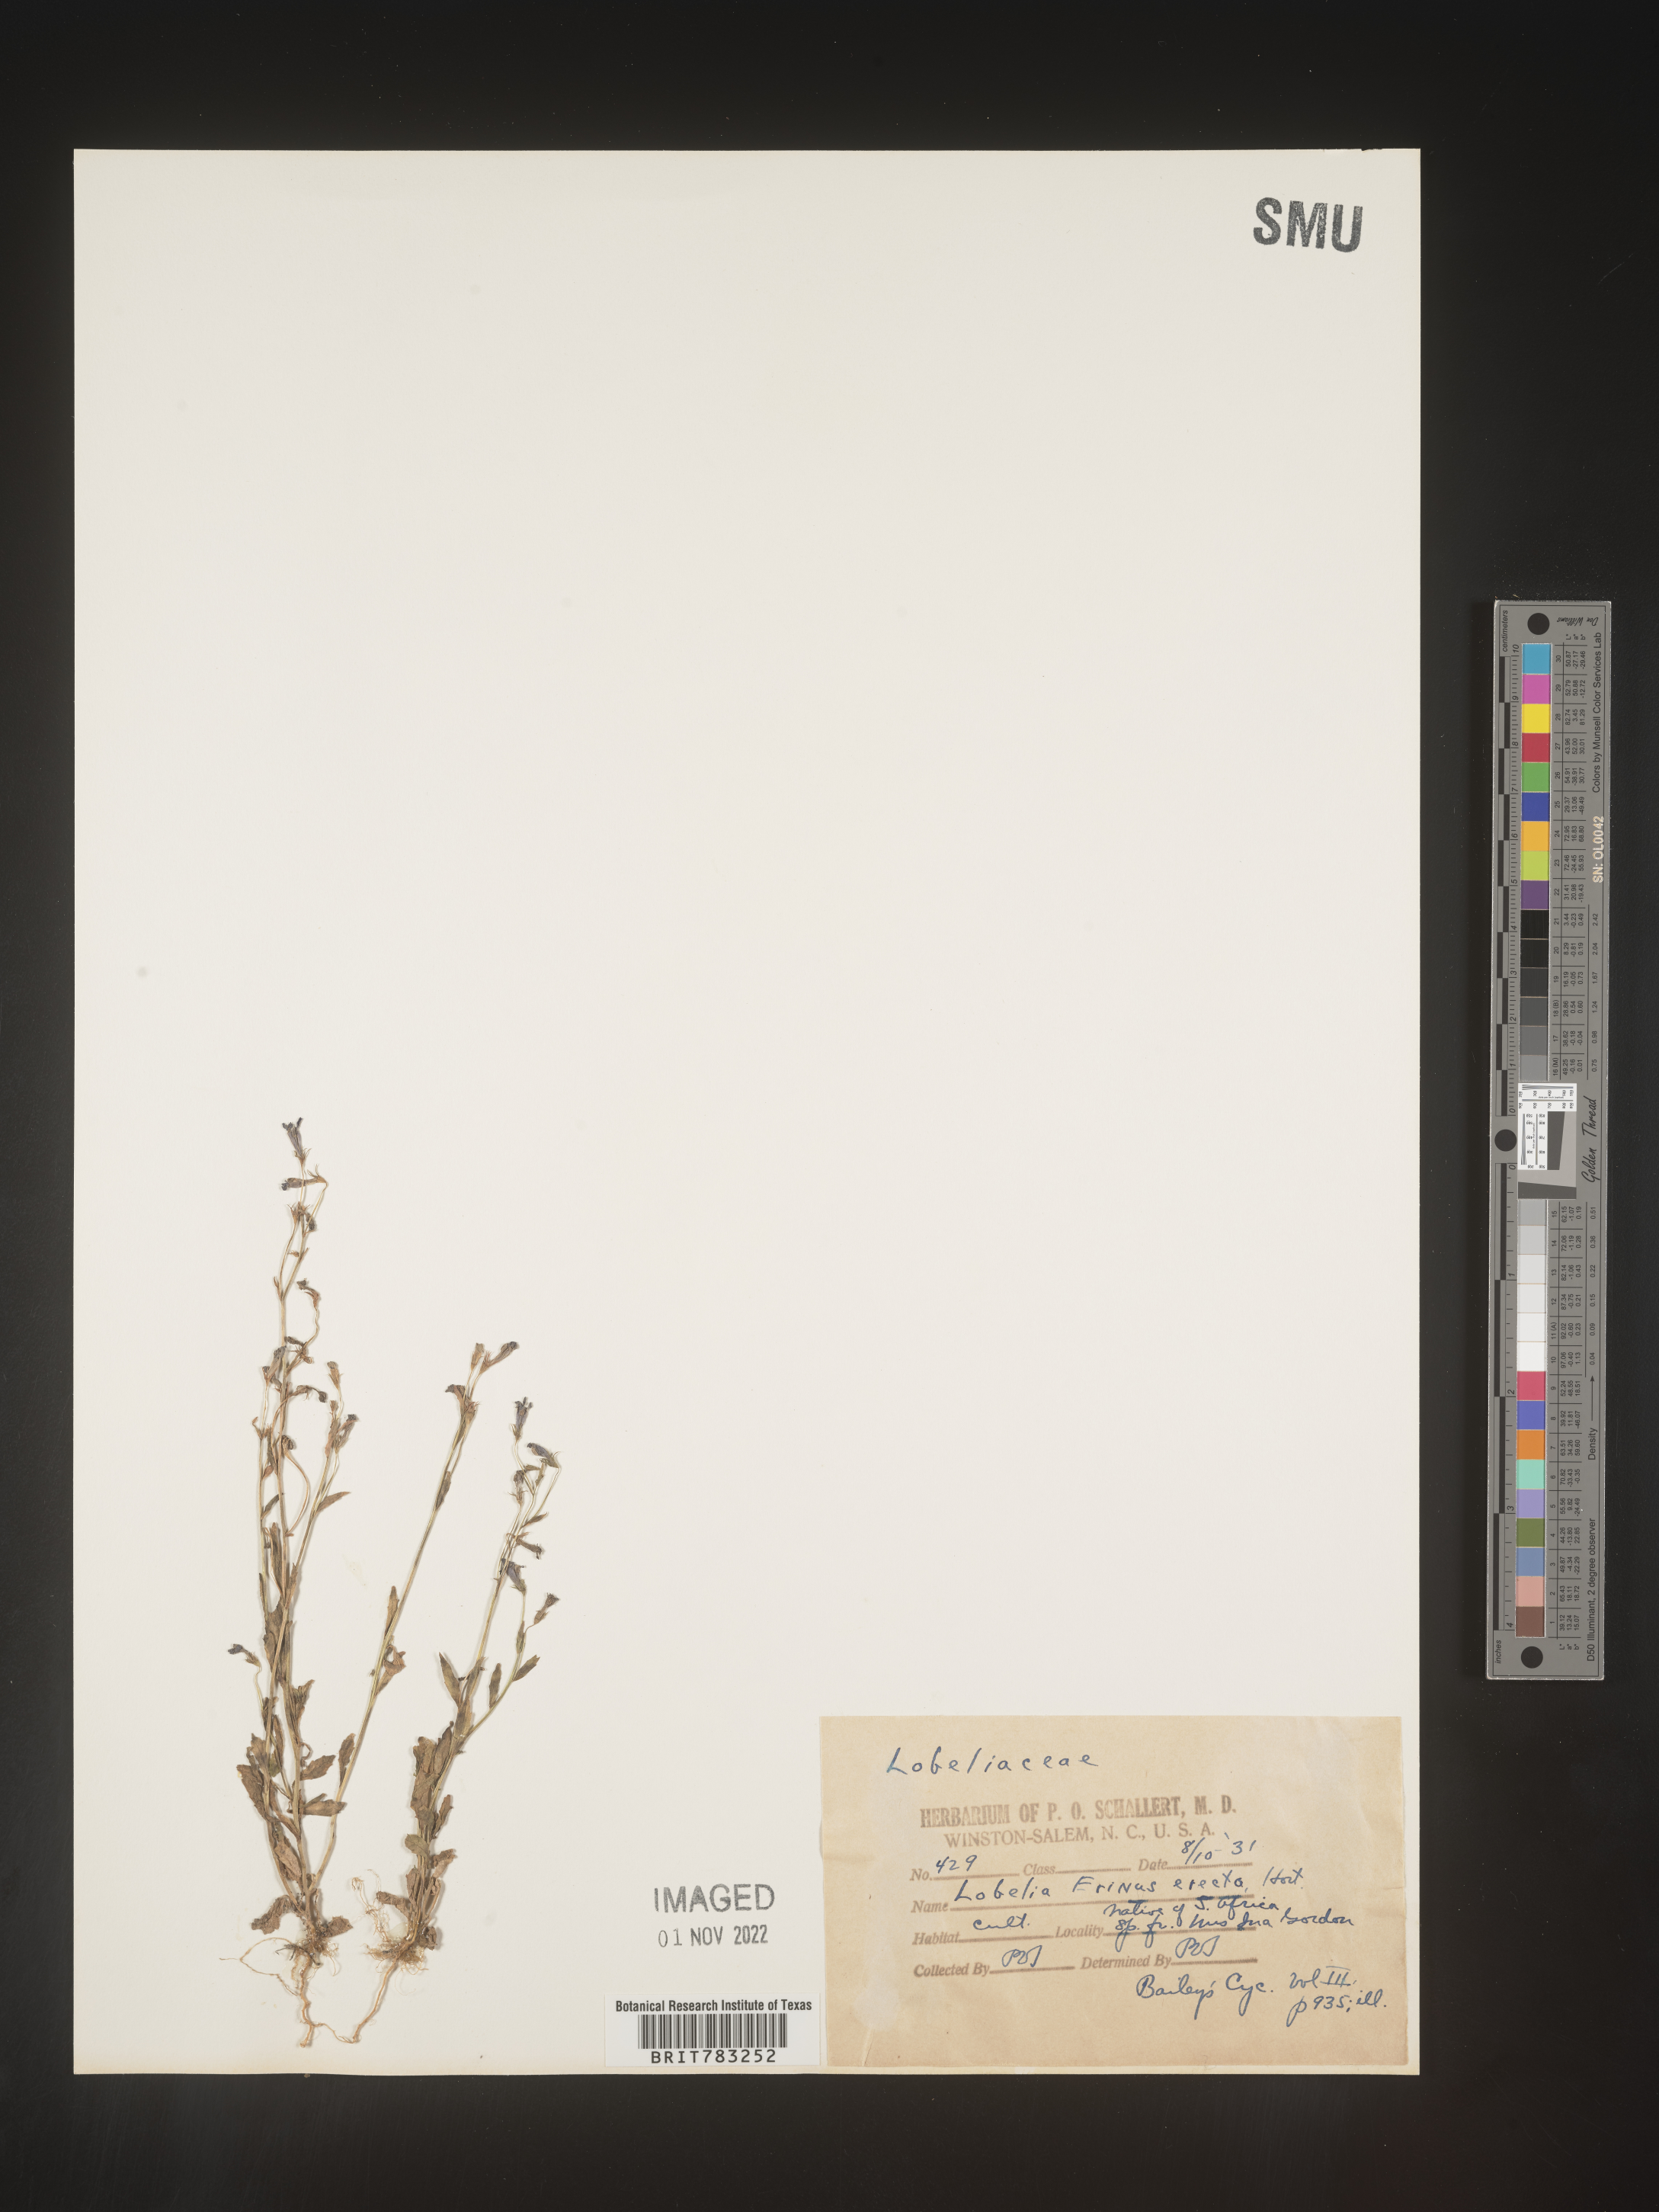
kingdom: Plantae
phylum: Tracheophyta
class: Magnoliopsida
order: Asterales
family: Campanulaceae
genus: Lobelia
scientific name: Lobelia
